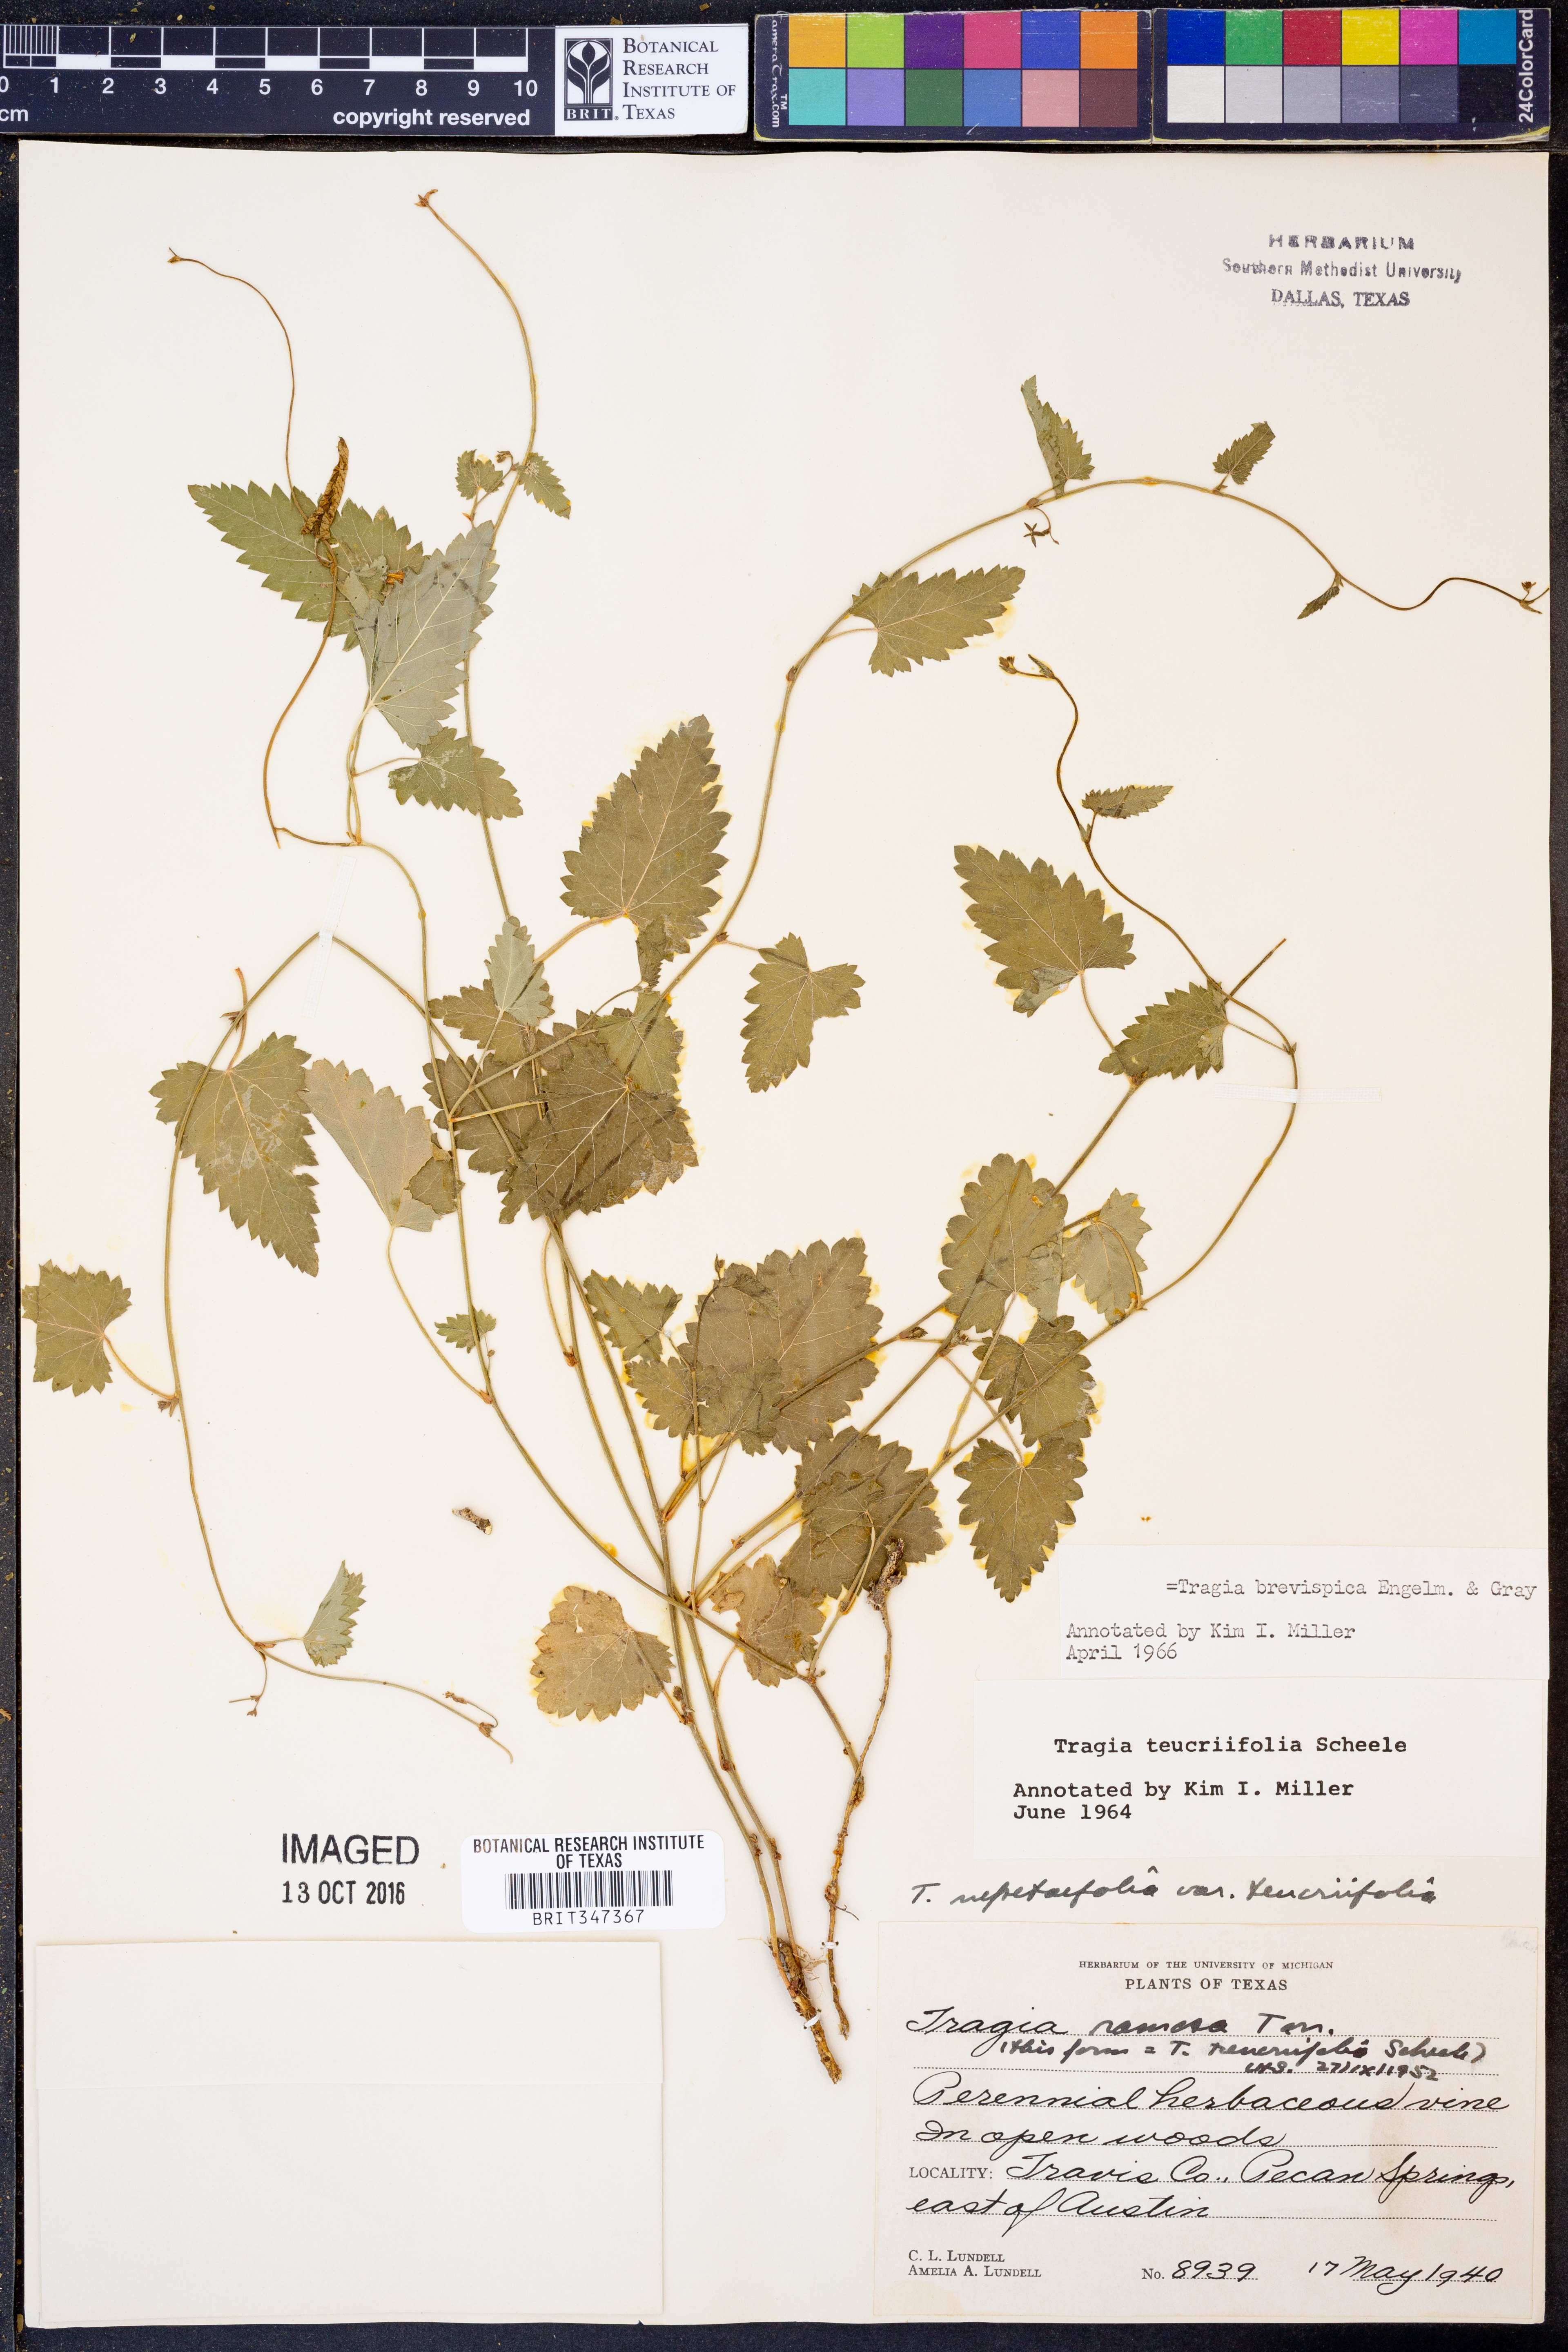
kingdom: Plantae
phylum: Tracheophyta
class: Magnoliopsida
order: Malpighiales
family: Euphorbiaceae
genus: Tragia
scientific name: Tragia brevispica
